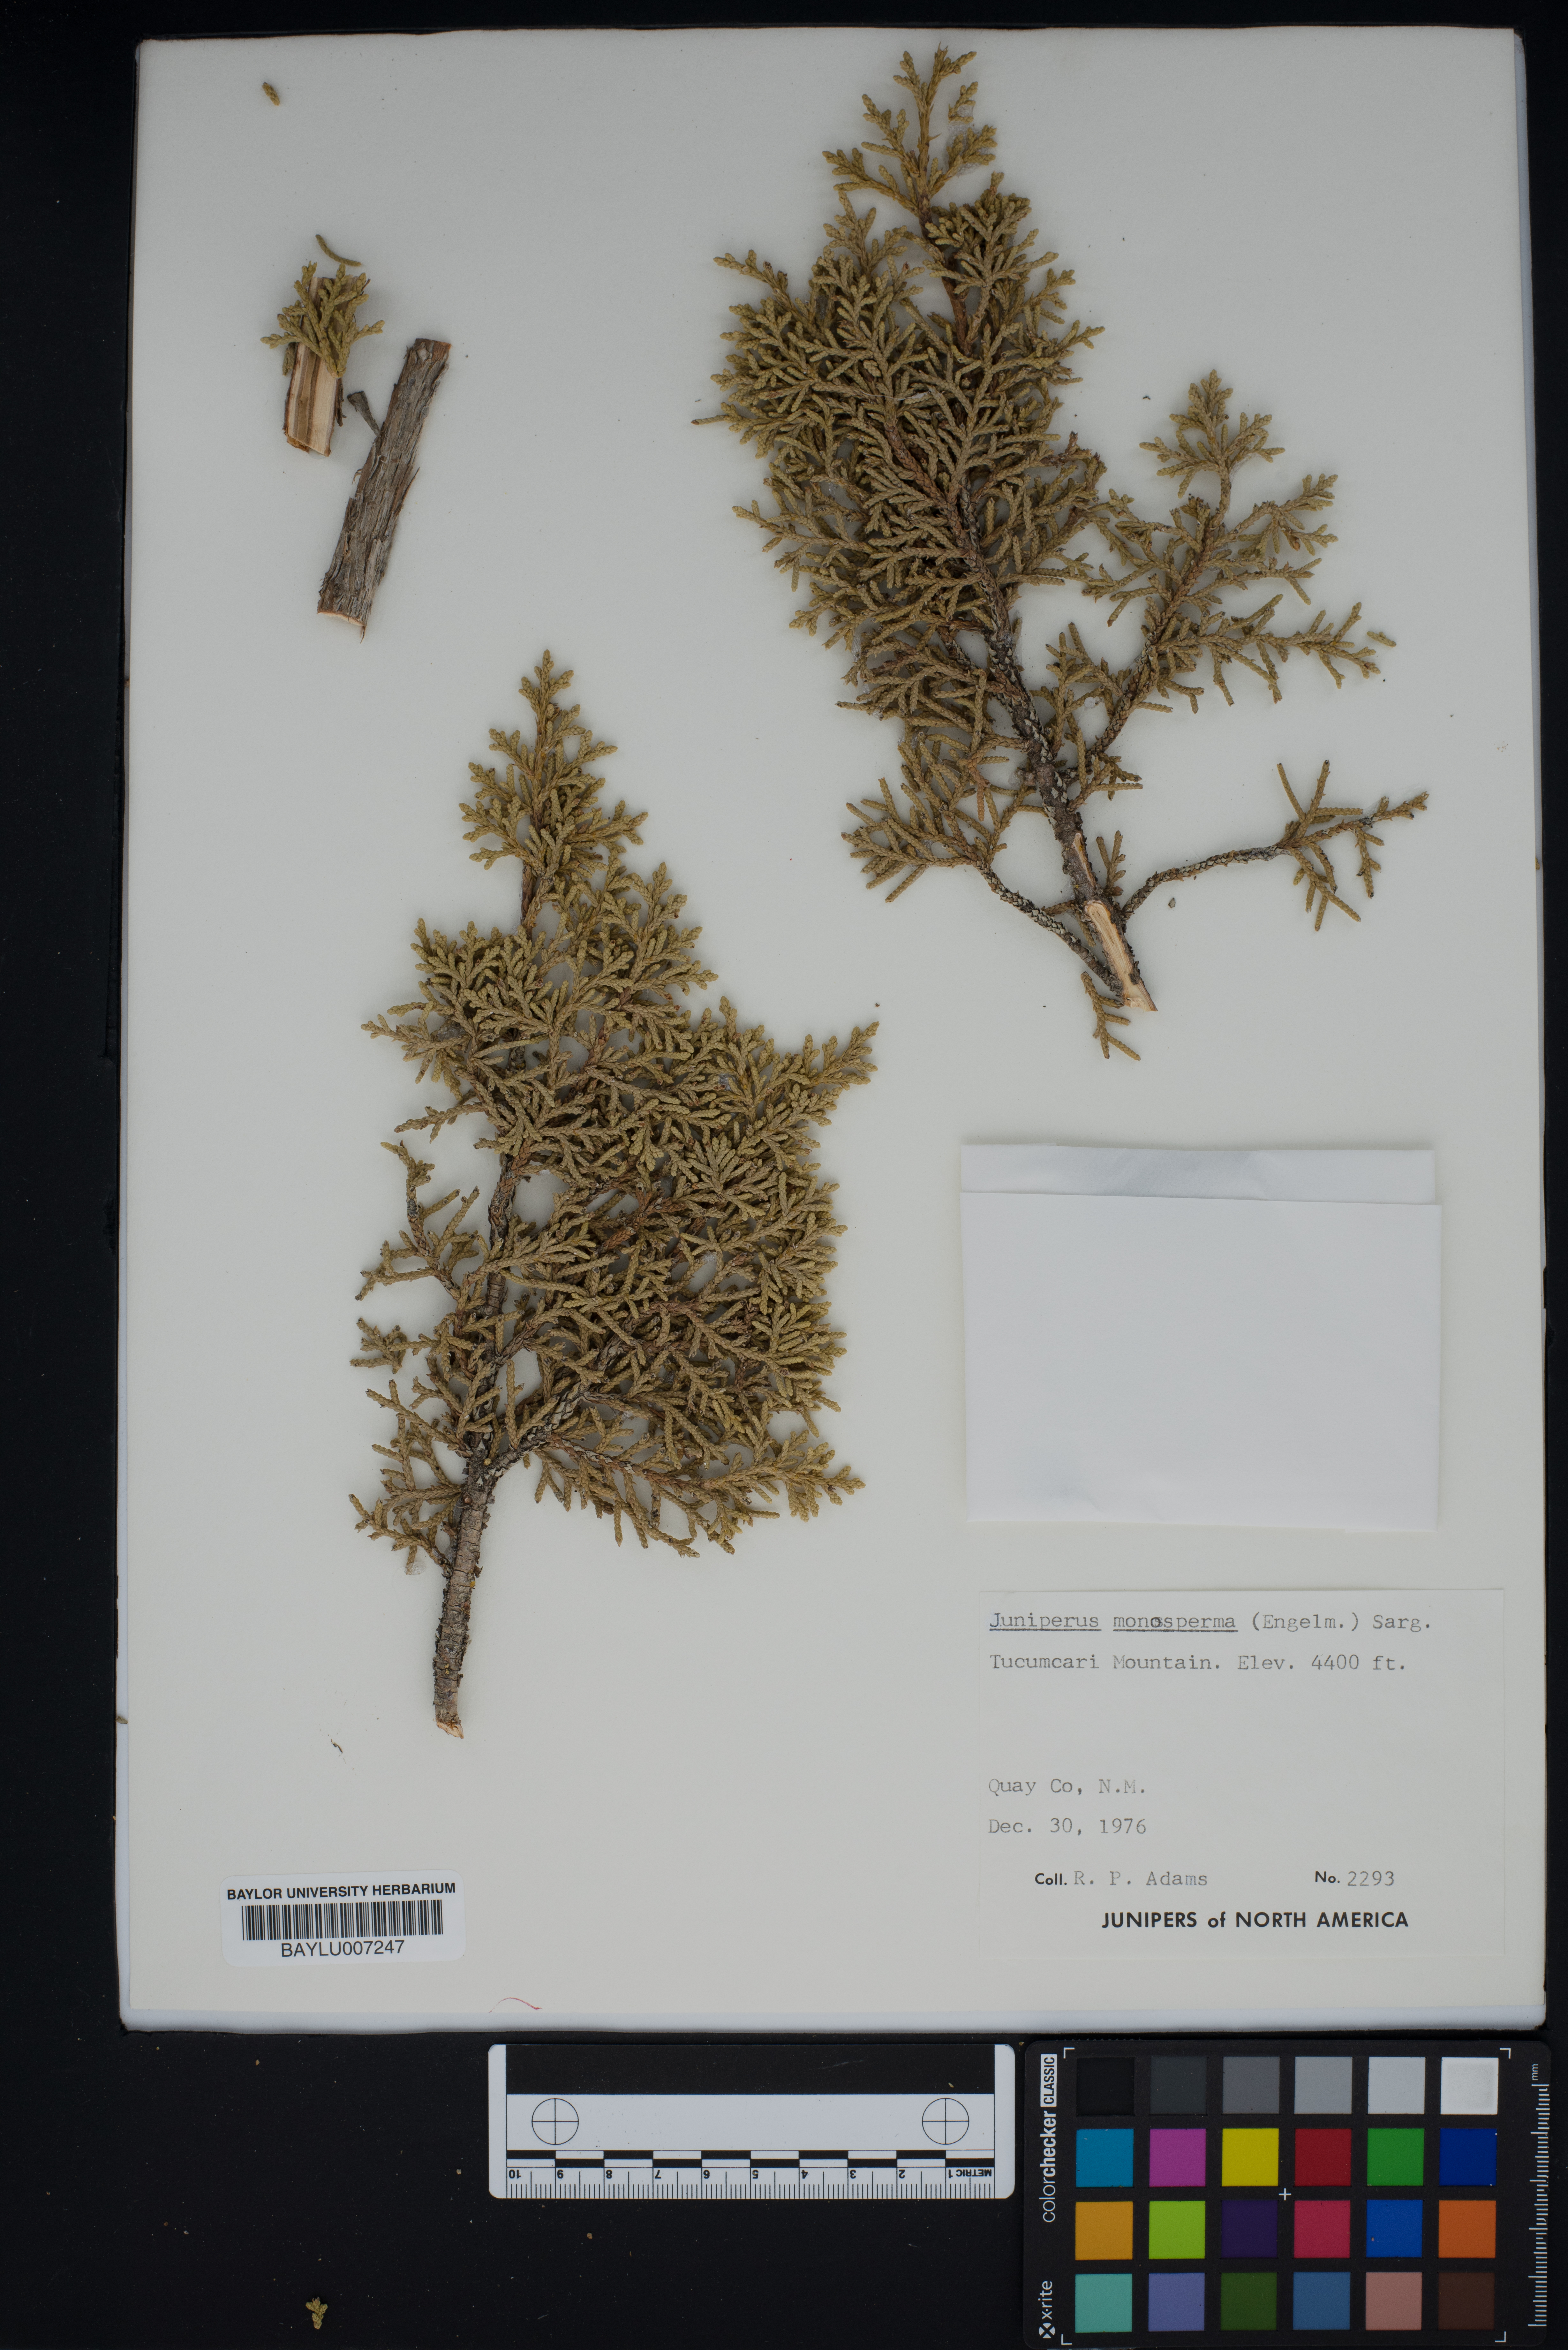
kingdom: Plantae
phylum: Tracheophyta
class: Pinopsida
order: Pinales
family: Cupressaceae
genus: Juniperus
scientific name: Juniperus monosperma
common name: One-seed juniper
